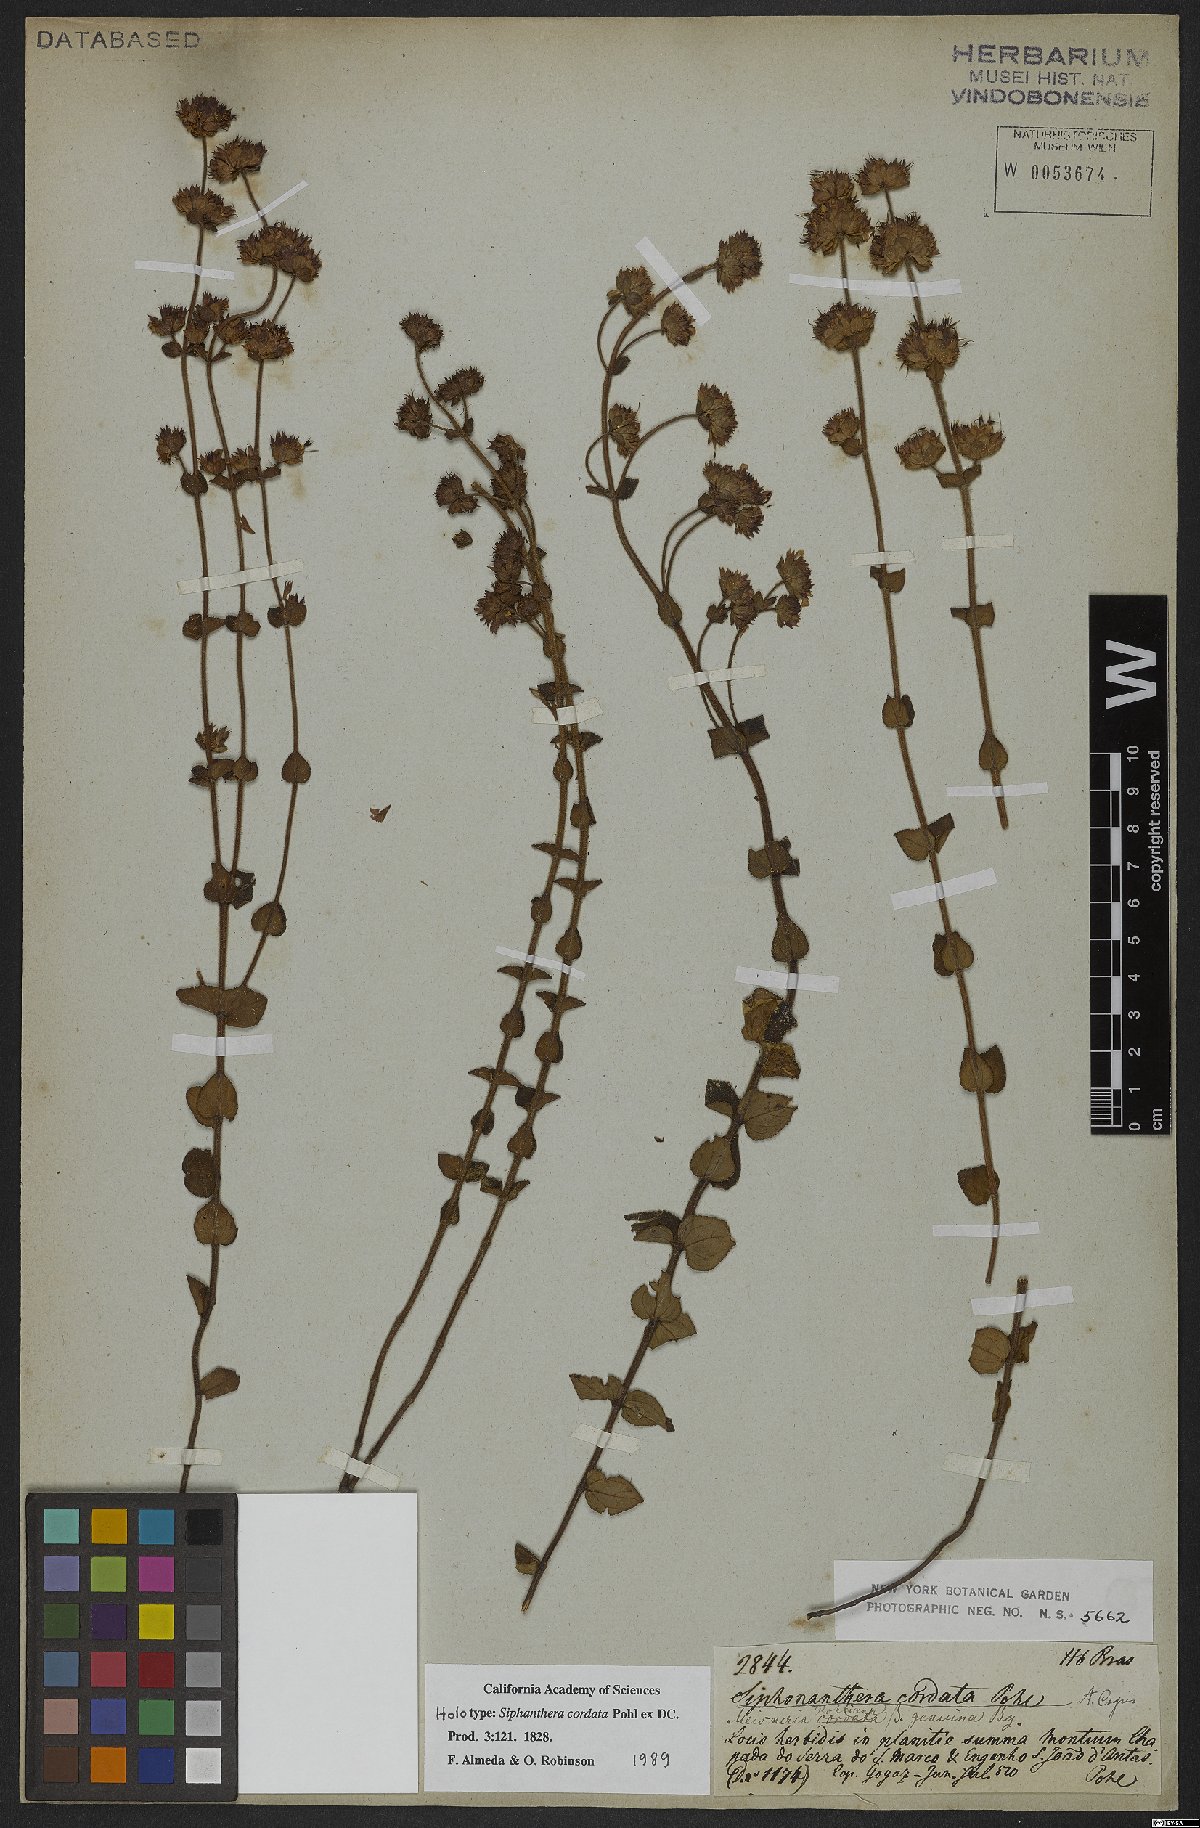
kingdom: Plantae
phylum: Tracheophyta
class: Magnoliopsida
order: Myrtales
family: Melastomataceae
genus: Siphanthera
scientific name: Siphanthera cordata
